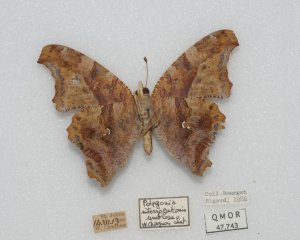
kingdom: Animalia
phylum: Arthropoda
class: Insecta
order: Lepidoptera
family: Nymphalidae
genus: Polygonia
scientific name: Polygonia interrogationis
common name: Question Mark
